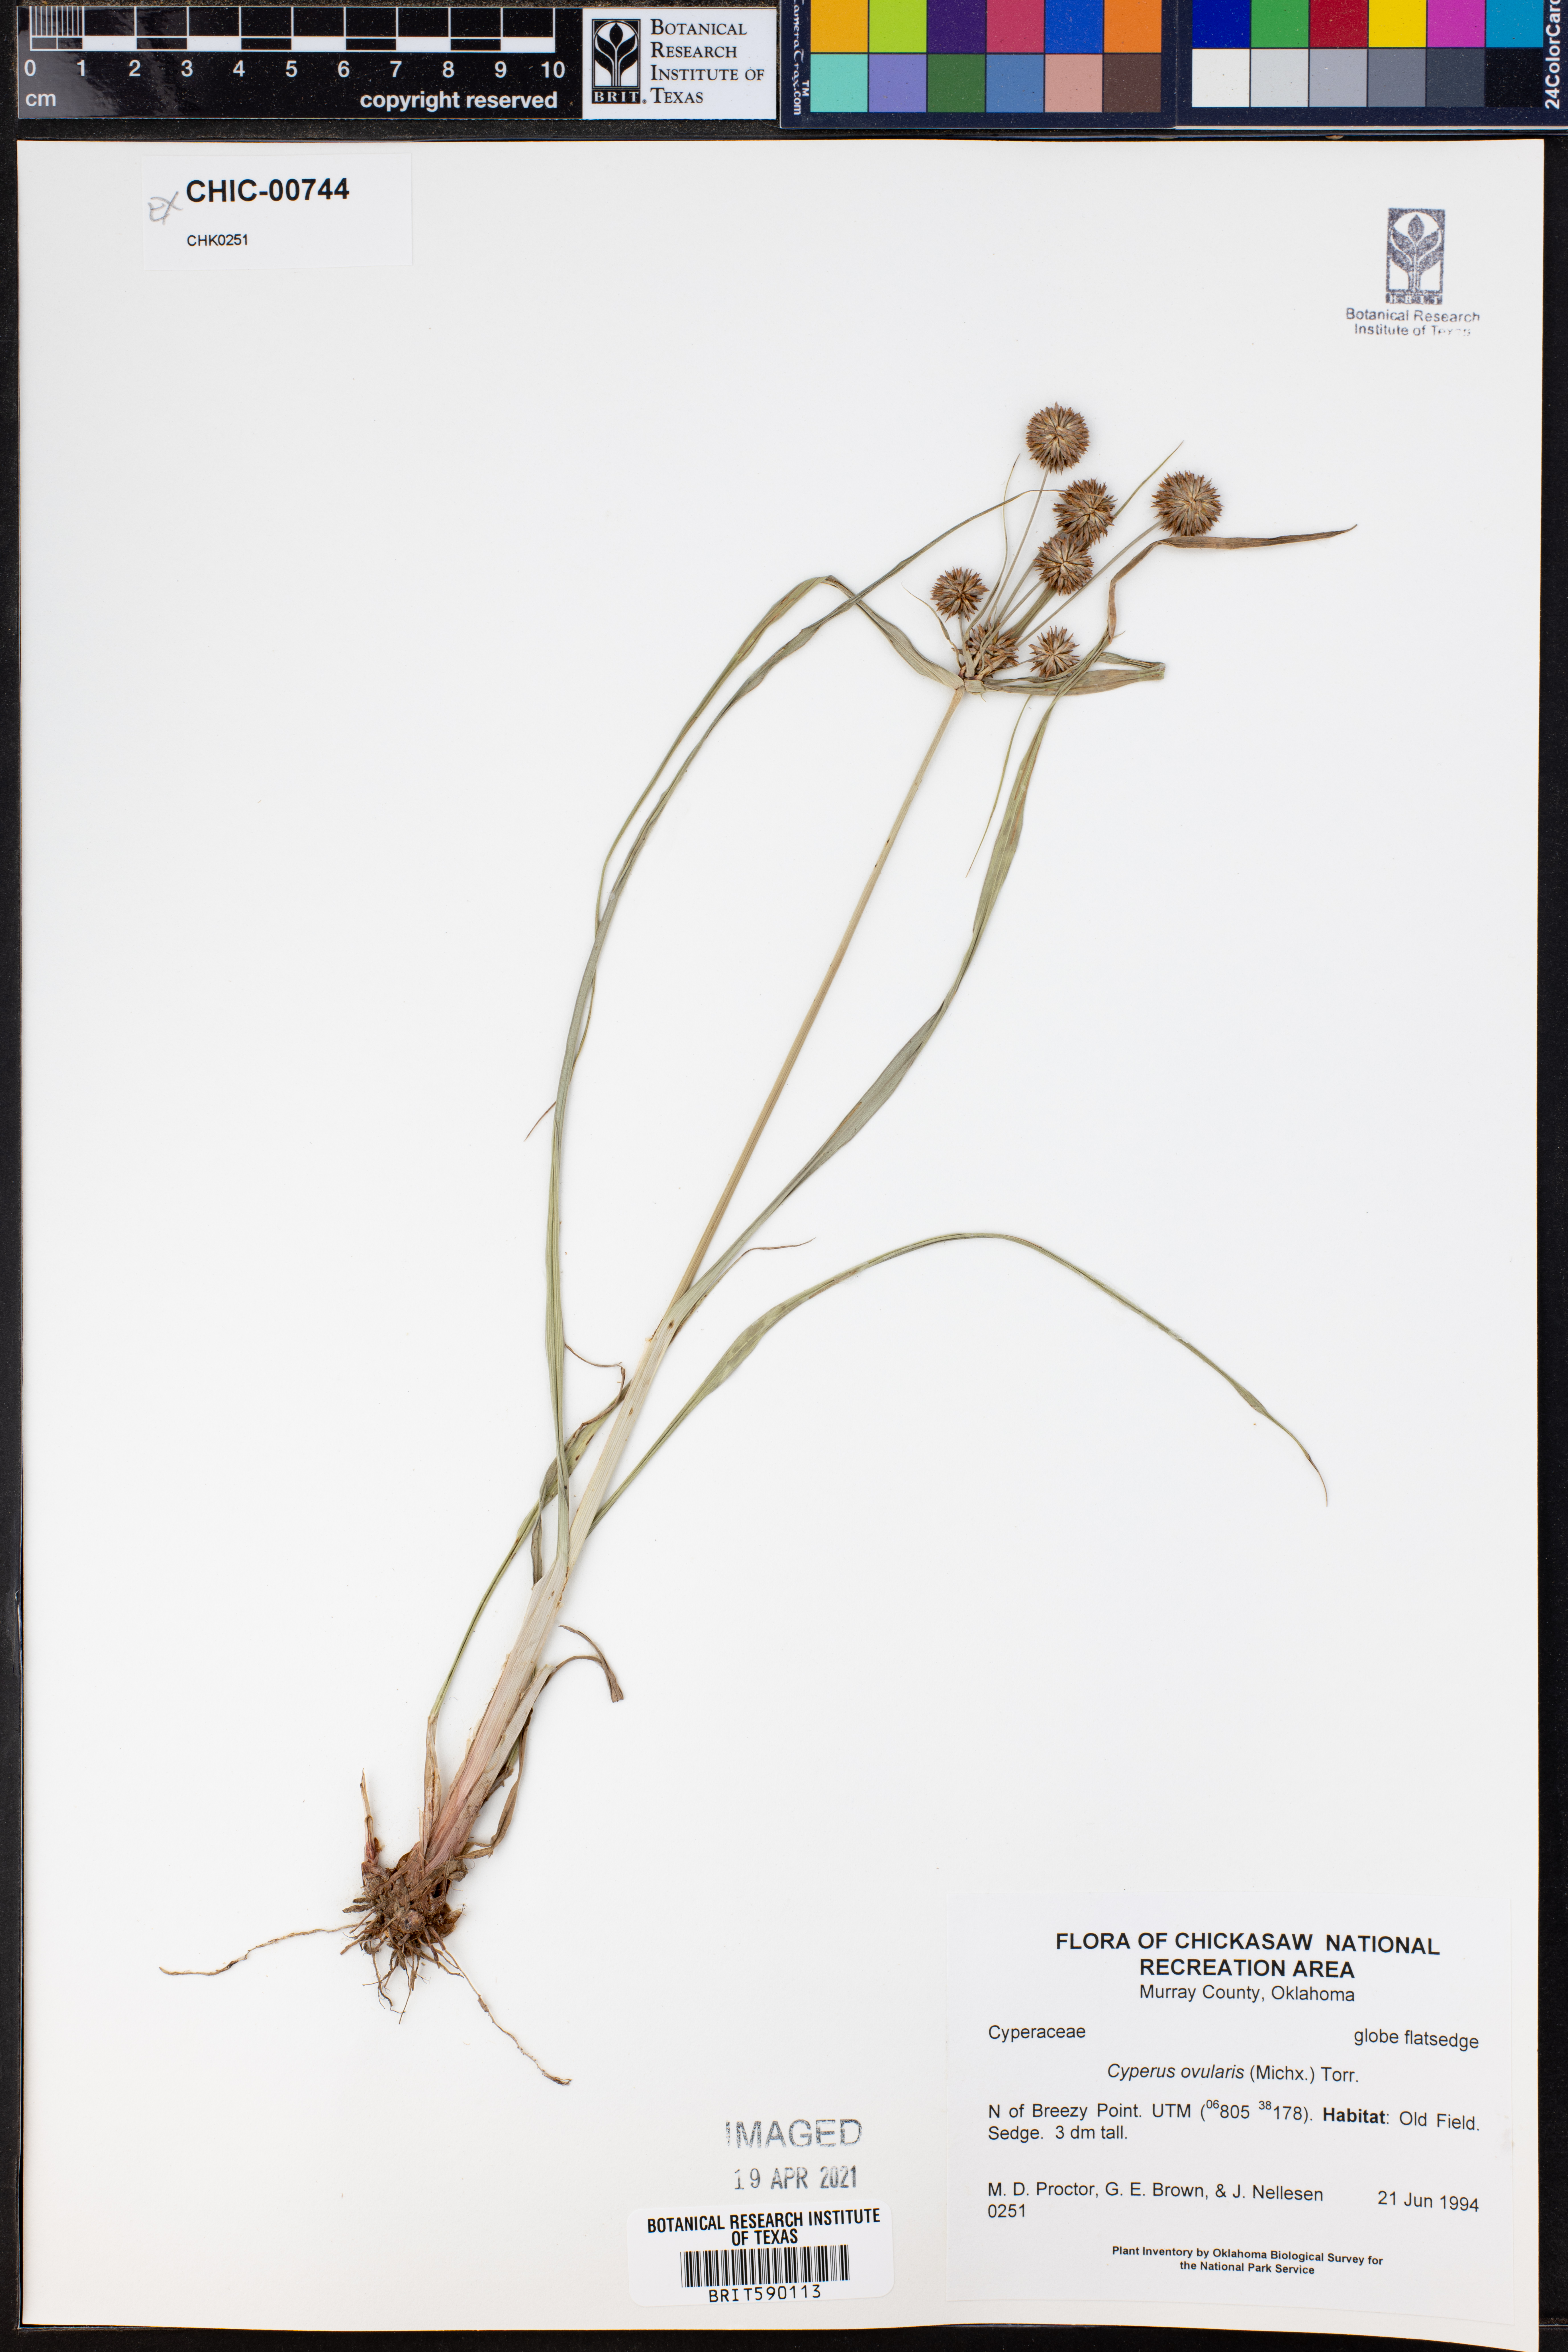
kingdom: Plantae
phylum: Tracheophyta
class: Liliopsida
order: Poales
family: Cyperaceae
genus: Cyperus
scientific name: Cyperus echinatus
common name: Teasel sedge
